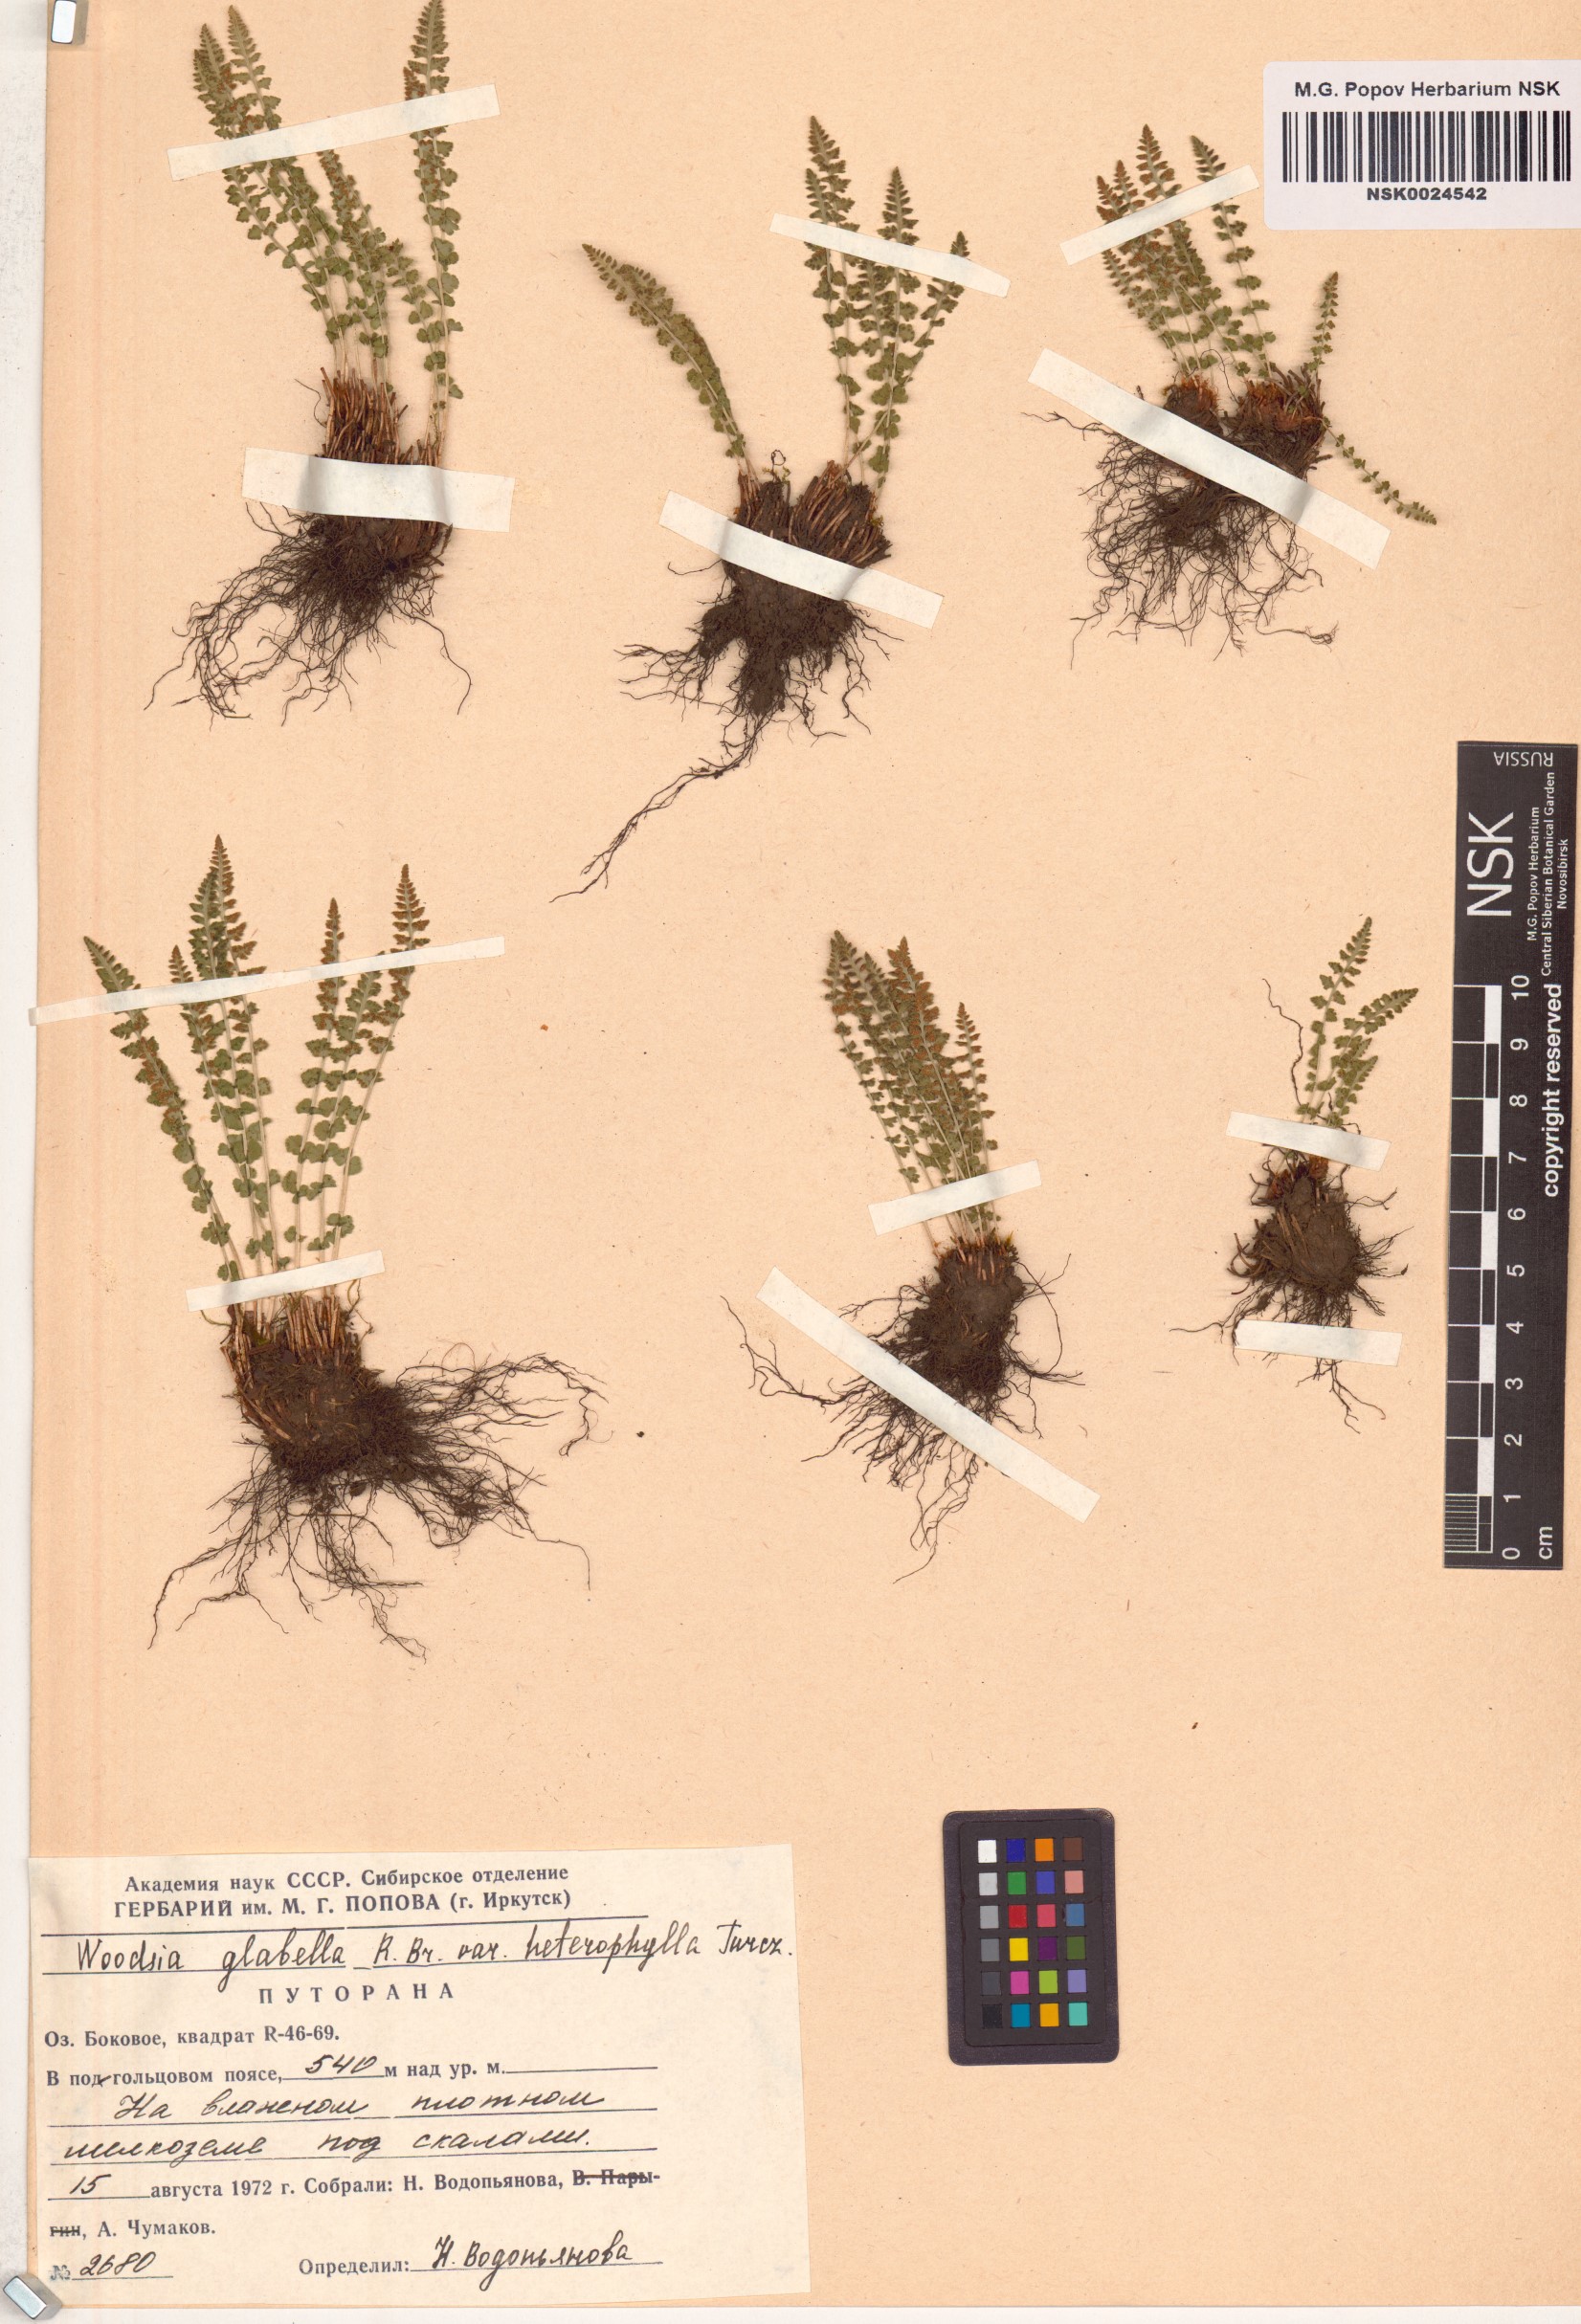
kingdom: Plantae
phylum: Tracheophyta
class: Polypodiopsida
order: Polypodiales
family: Woodsiaceae
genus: Woodsia
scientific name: Woodsia pulchella
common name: Graceful woodsia
